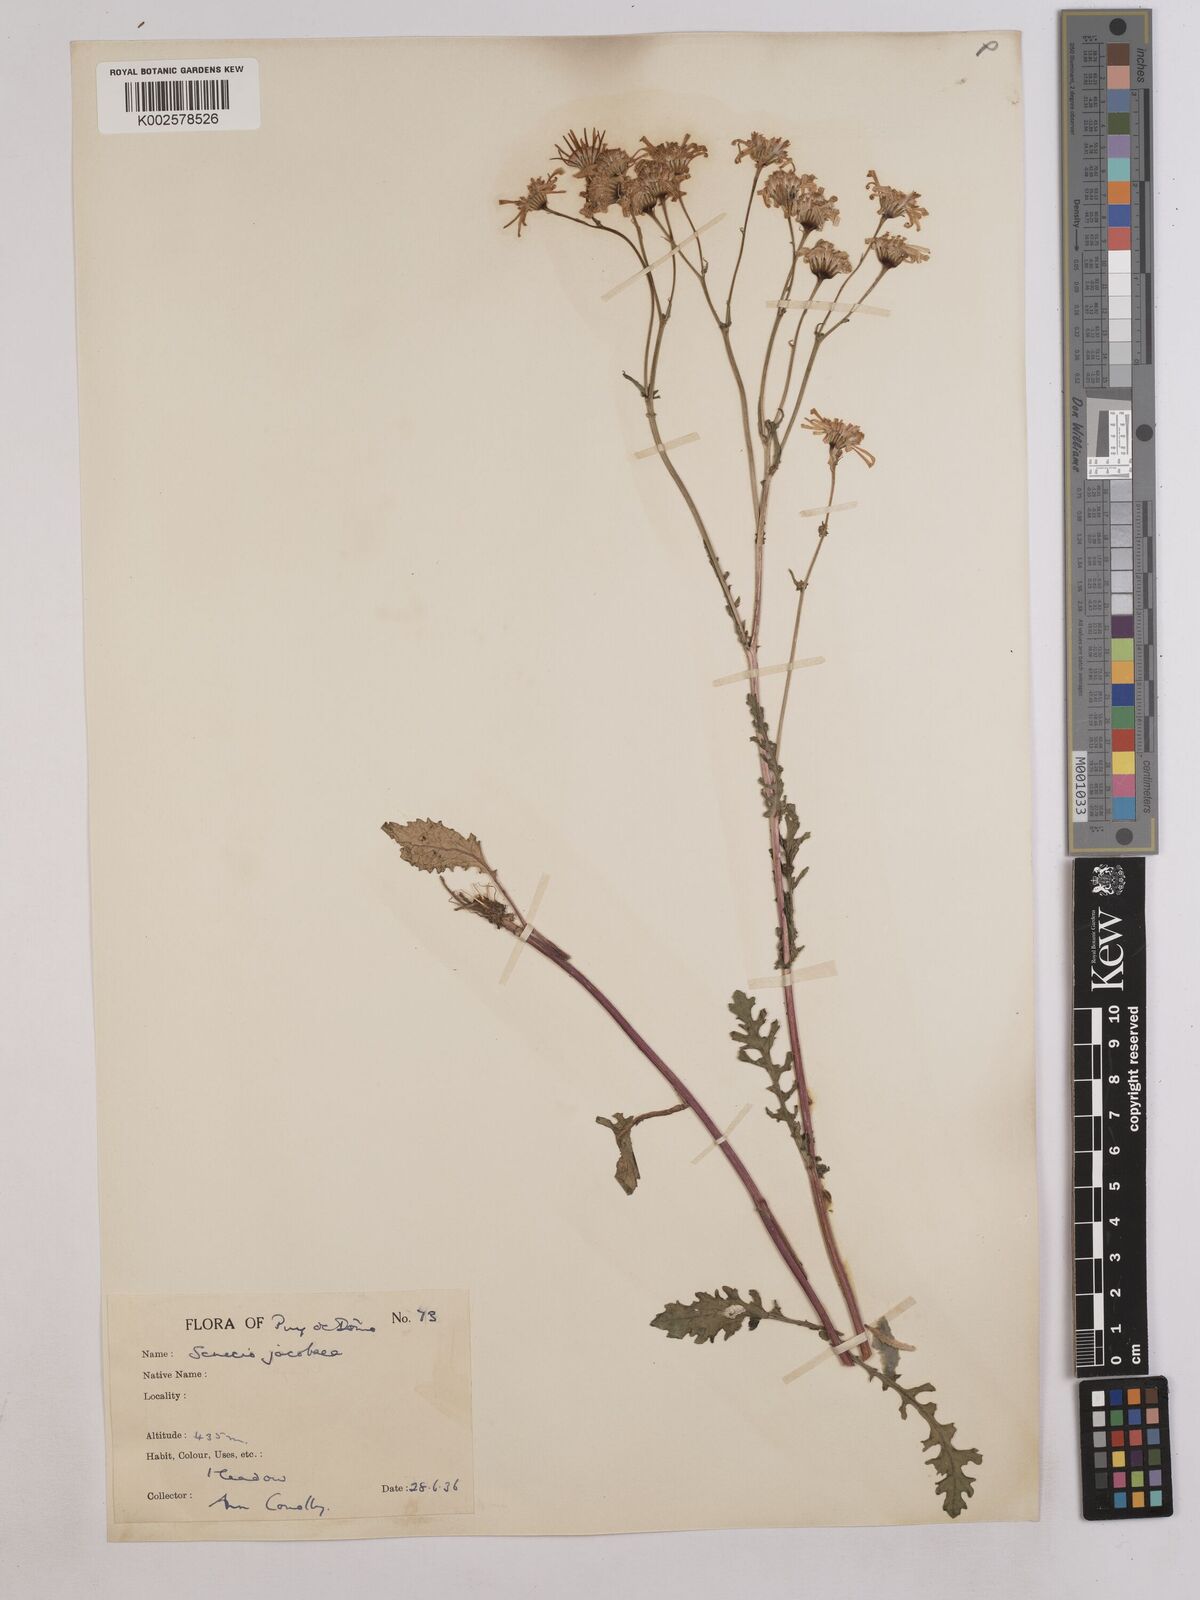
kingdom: Plantae
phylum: Tracheophyta
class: Magnoliopsida
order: Asterales
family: Asteraceae
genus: Jacobaea
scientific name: Jacobaea vulgaris
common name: Stinking willie
